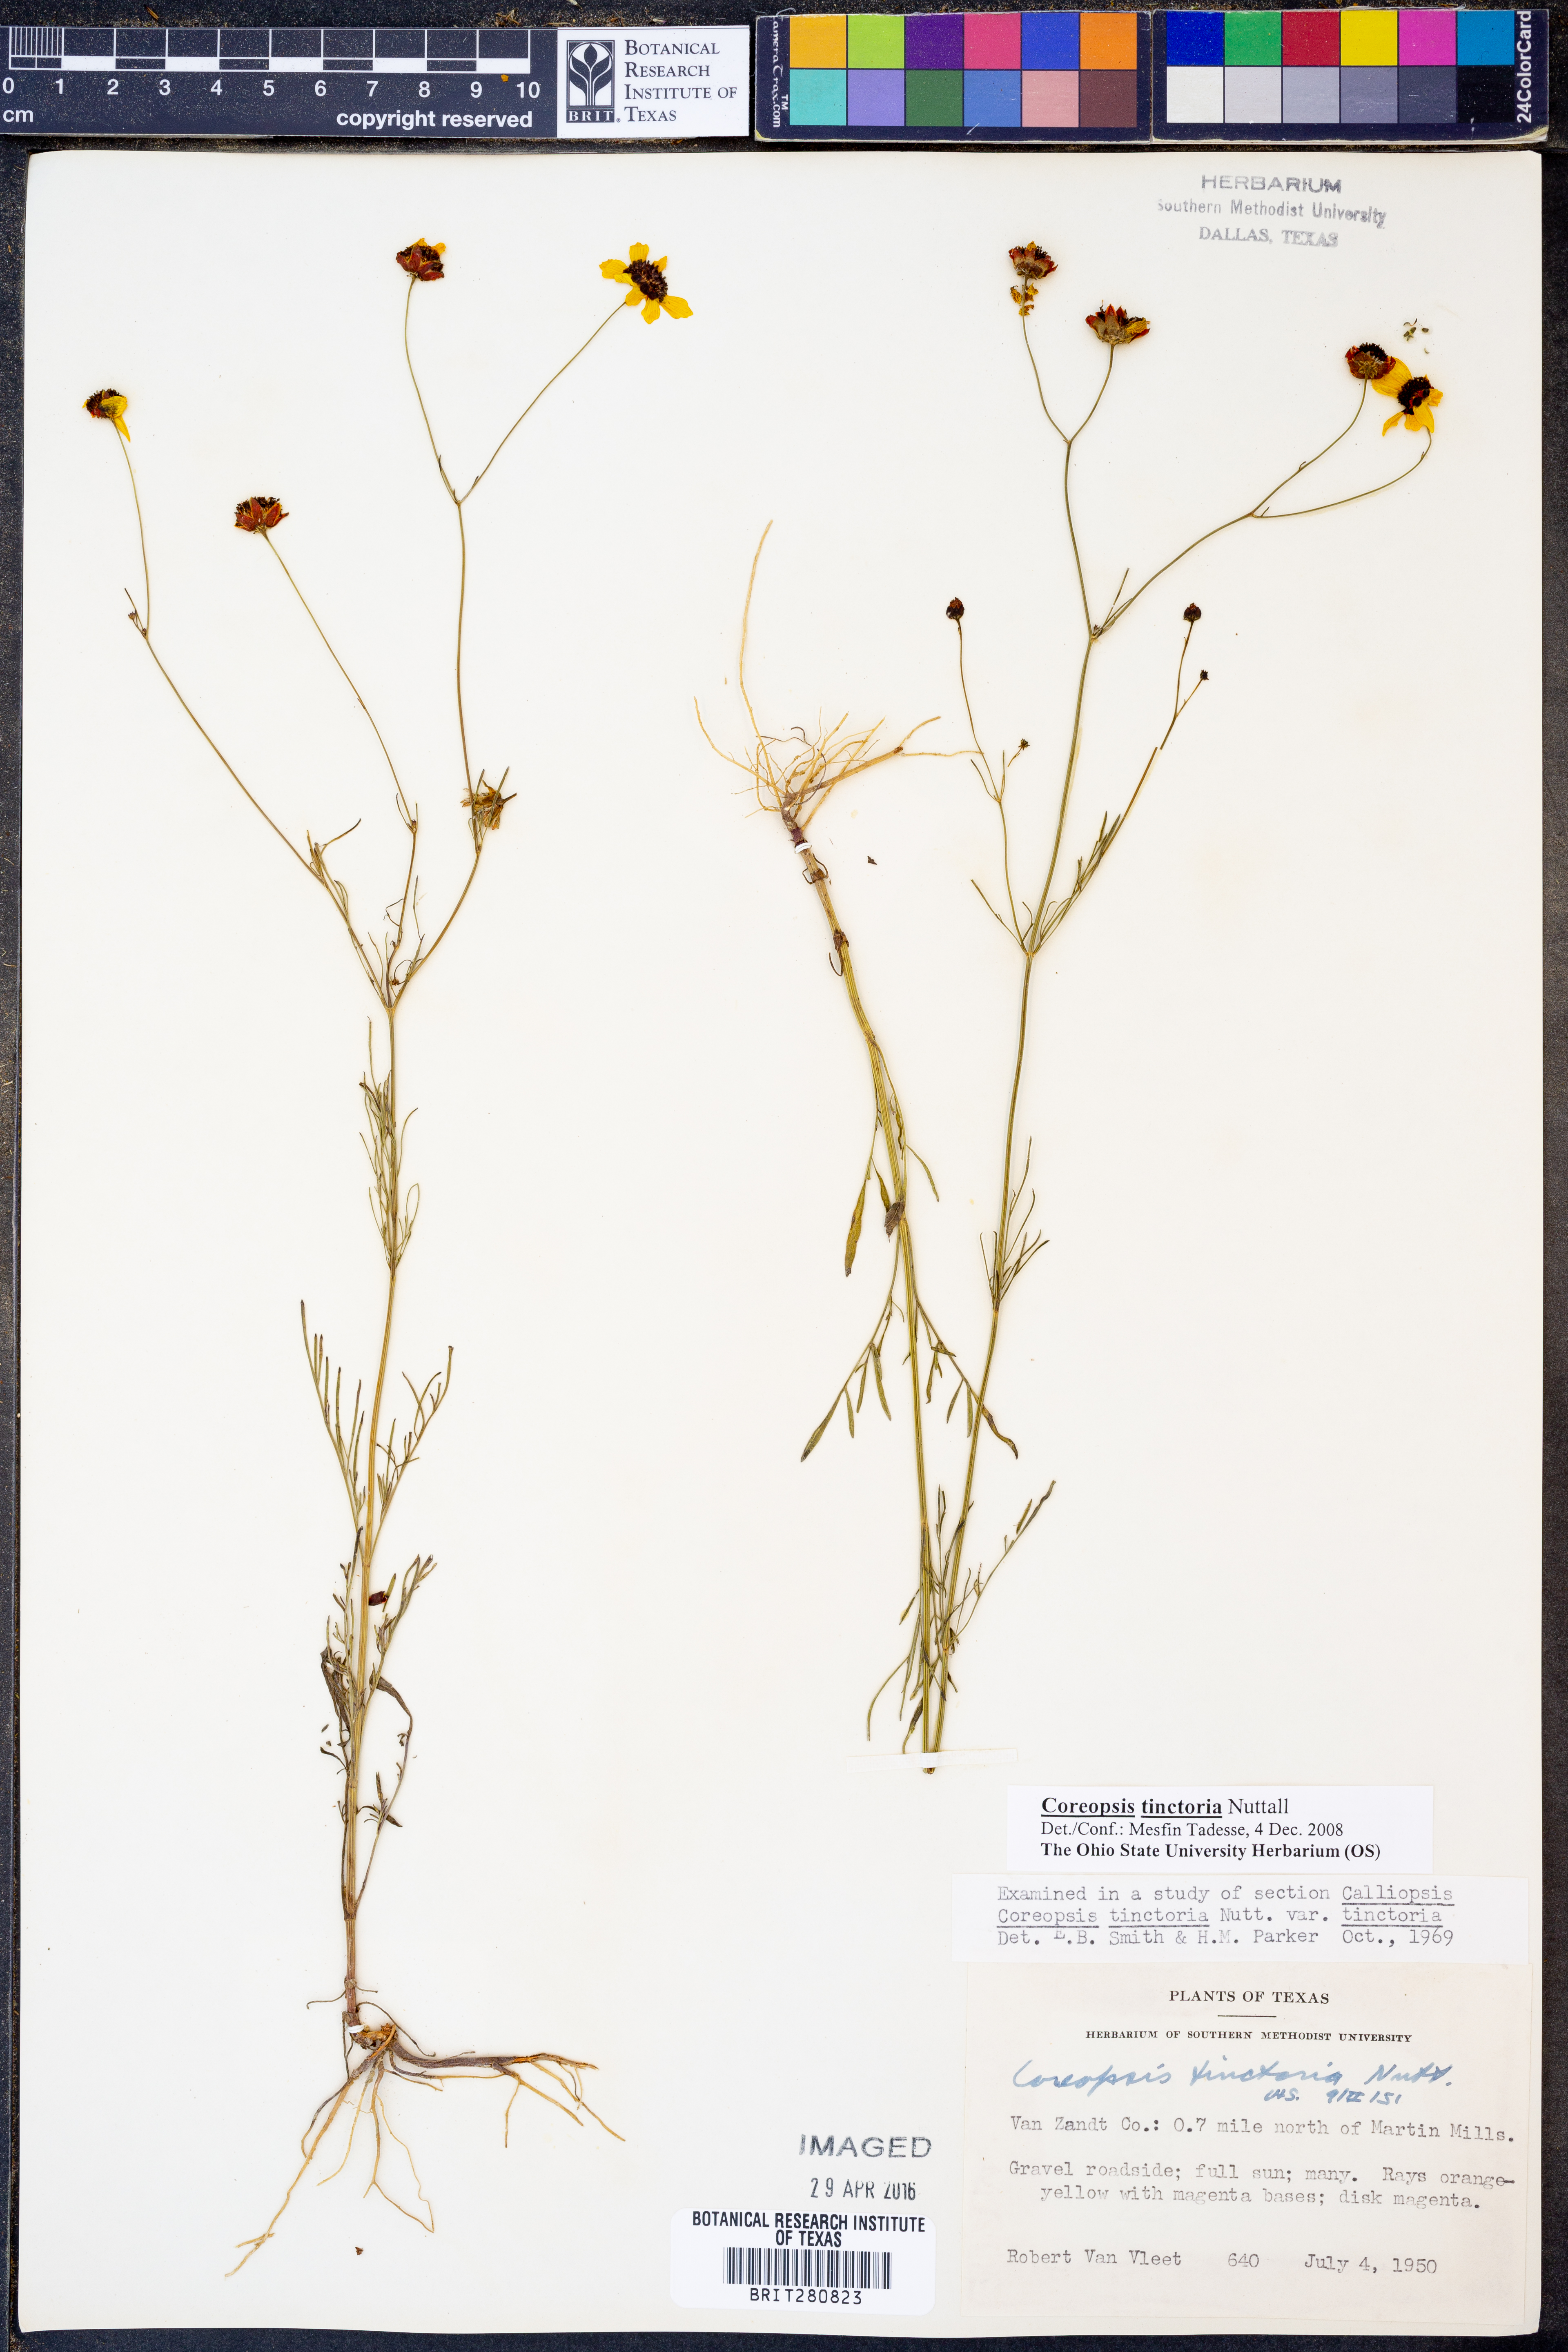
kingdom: Plantae
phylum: Tracheophyta
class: Magnoliopsida
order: Asterales
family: Asteraceae
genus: Coreopsis
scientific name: Coreopsis tinctoria
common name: Garden tickseed
